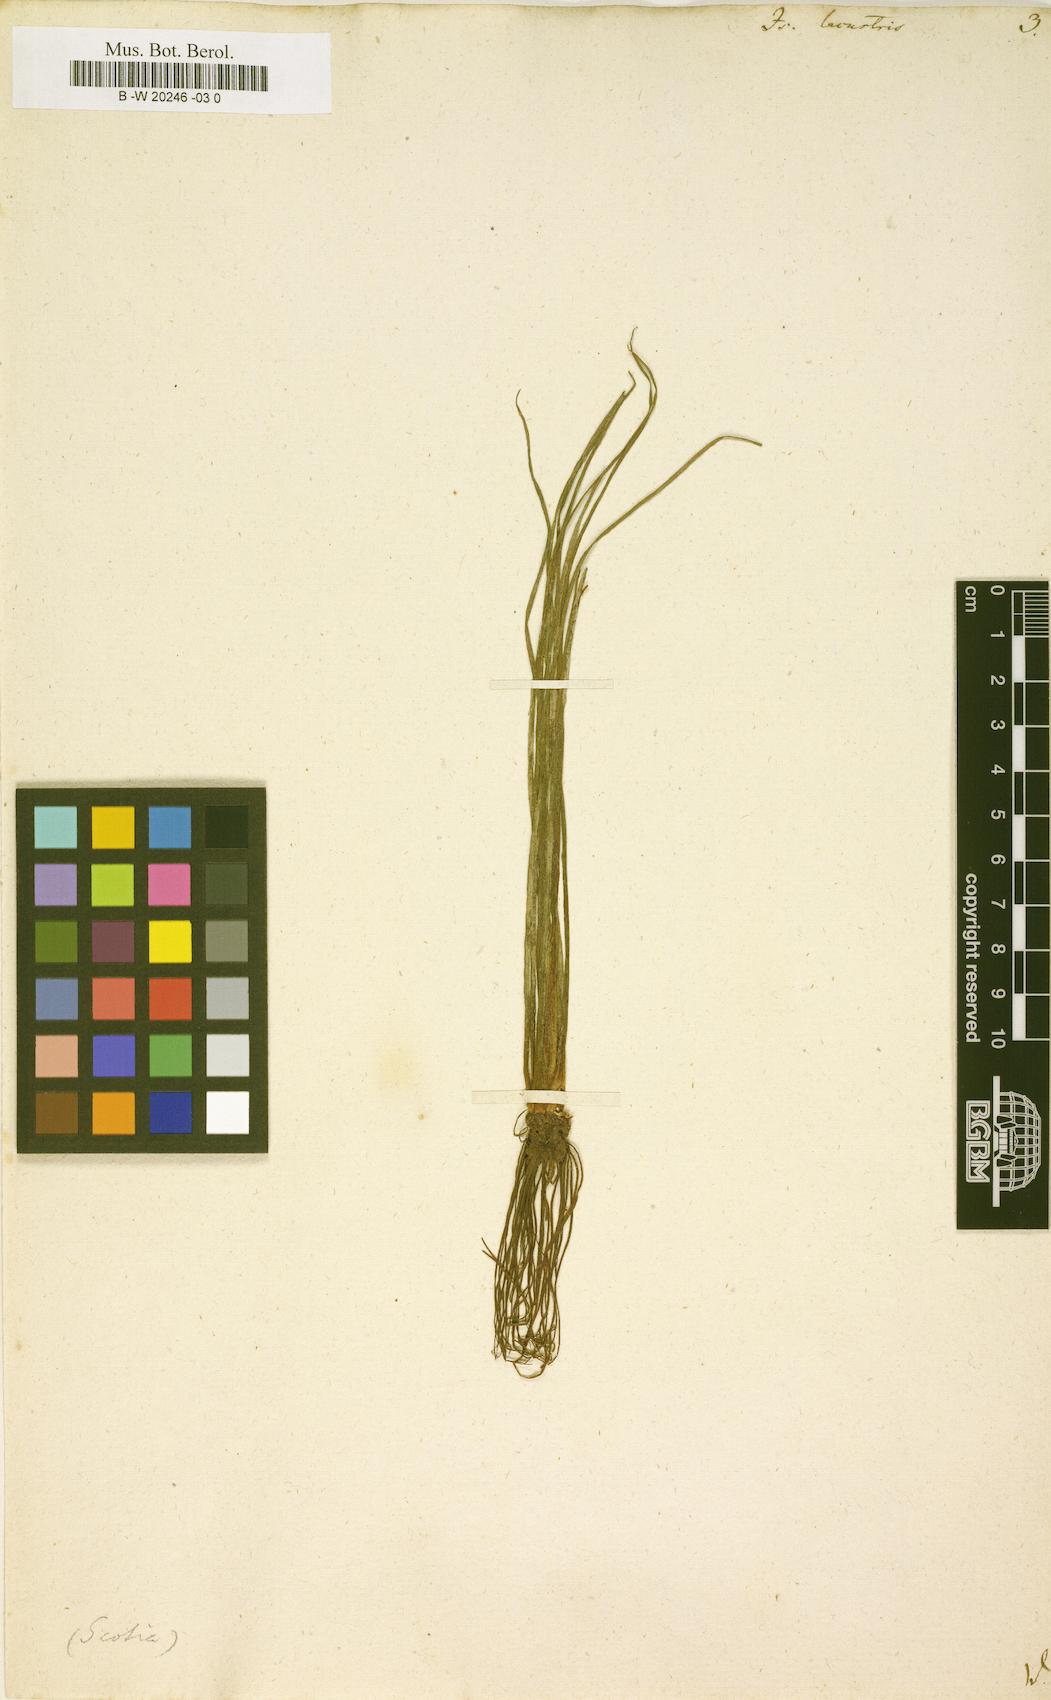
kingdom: Plantae
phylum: Tracheophyta
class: Lycopodiopsida
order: Isoetales
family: Isoetaceae
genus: Isoetes
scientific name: Isoetes lacustris
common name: Common quillwort
